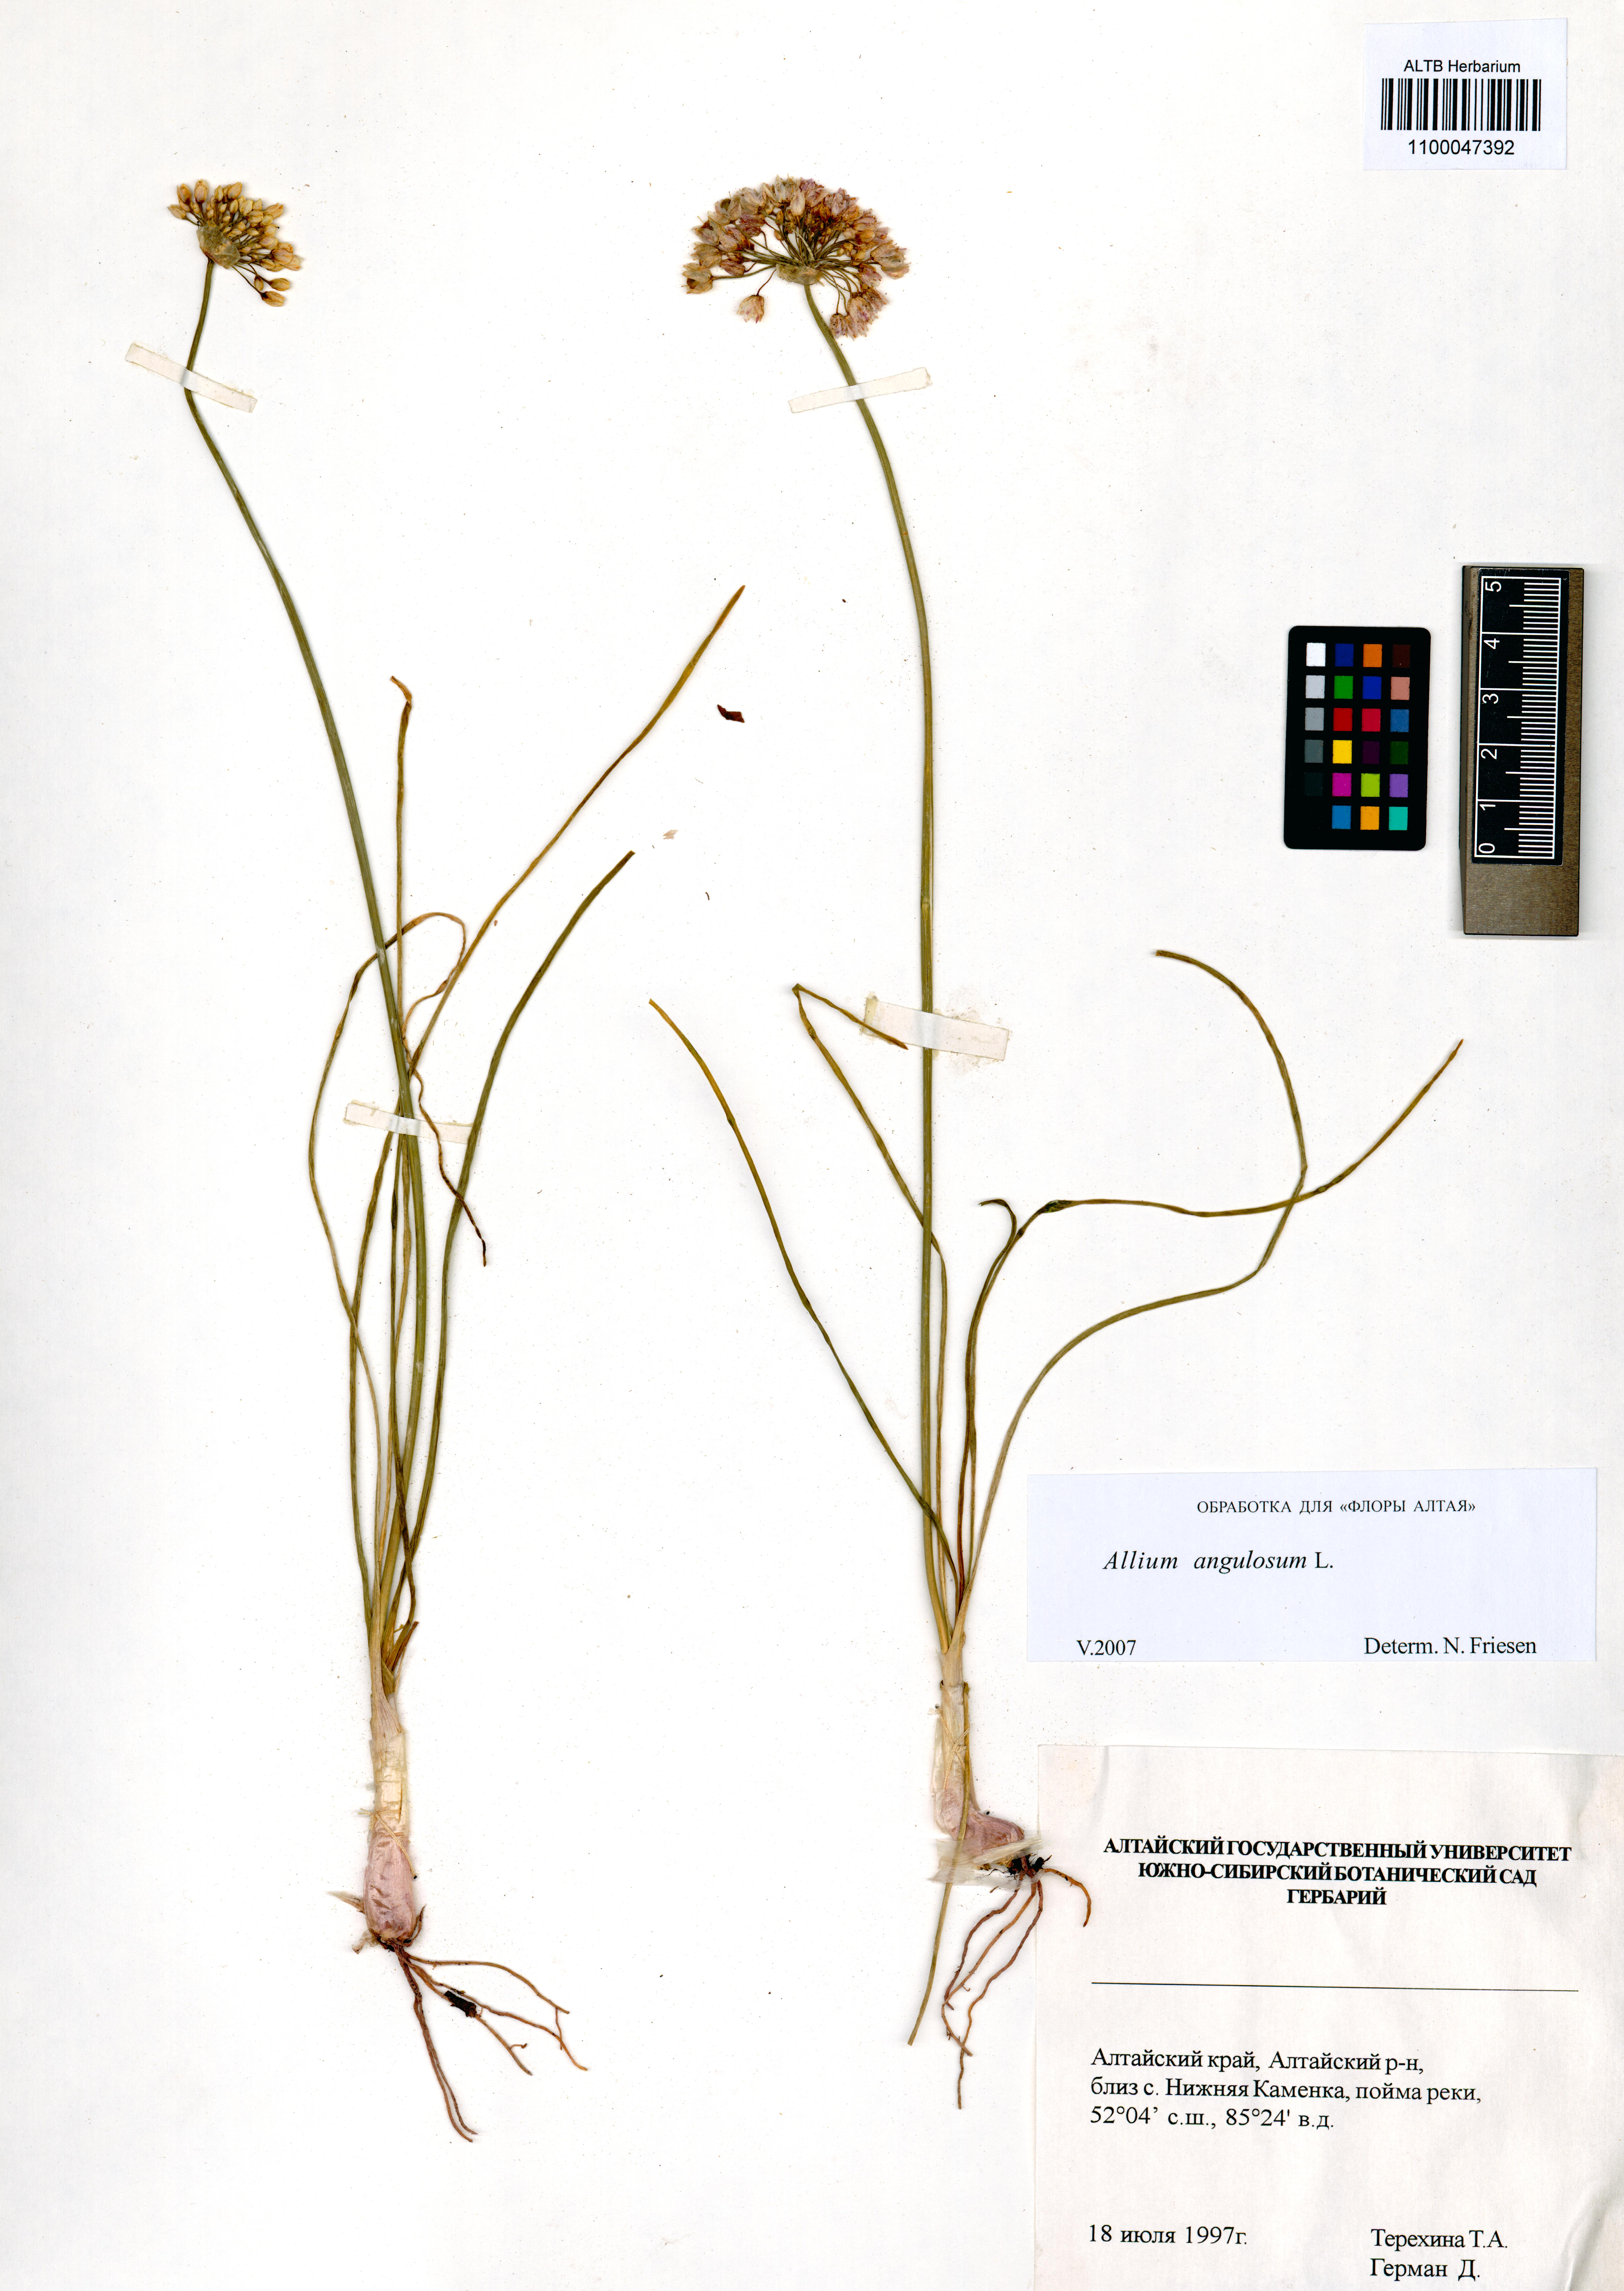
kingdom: Plantae
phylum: Tracheophyta
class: Liliopsida
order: Asparagales
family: Amaryllidaceae
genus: Allium
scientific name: Allium angulosum
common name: Mouse garlic
